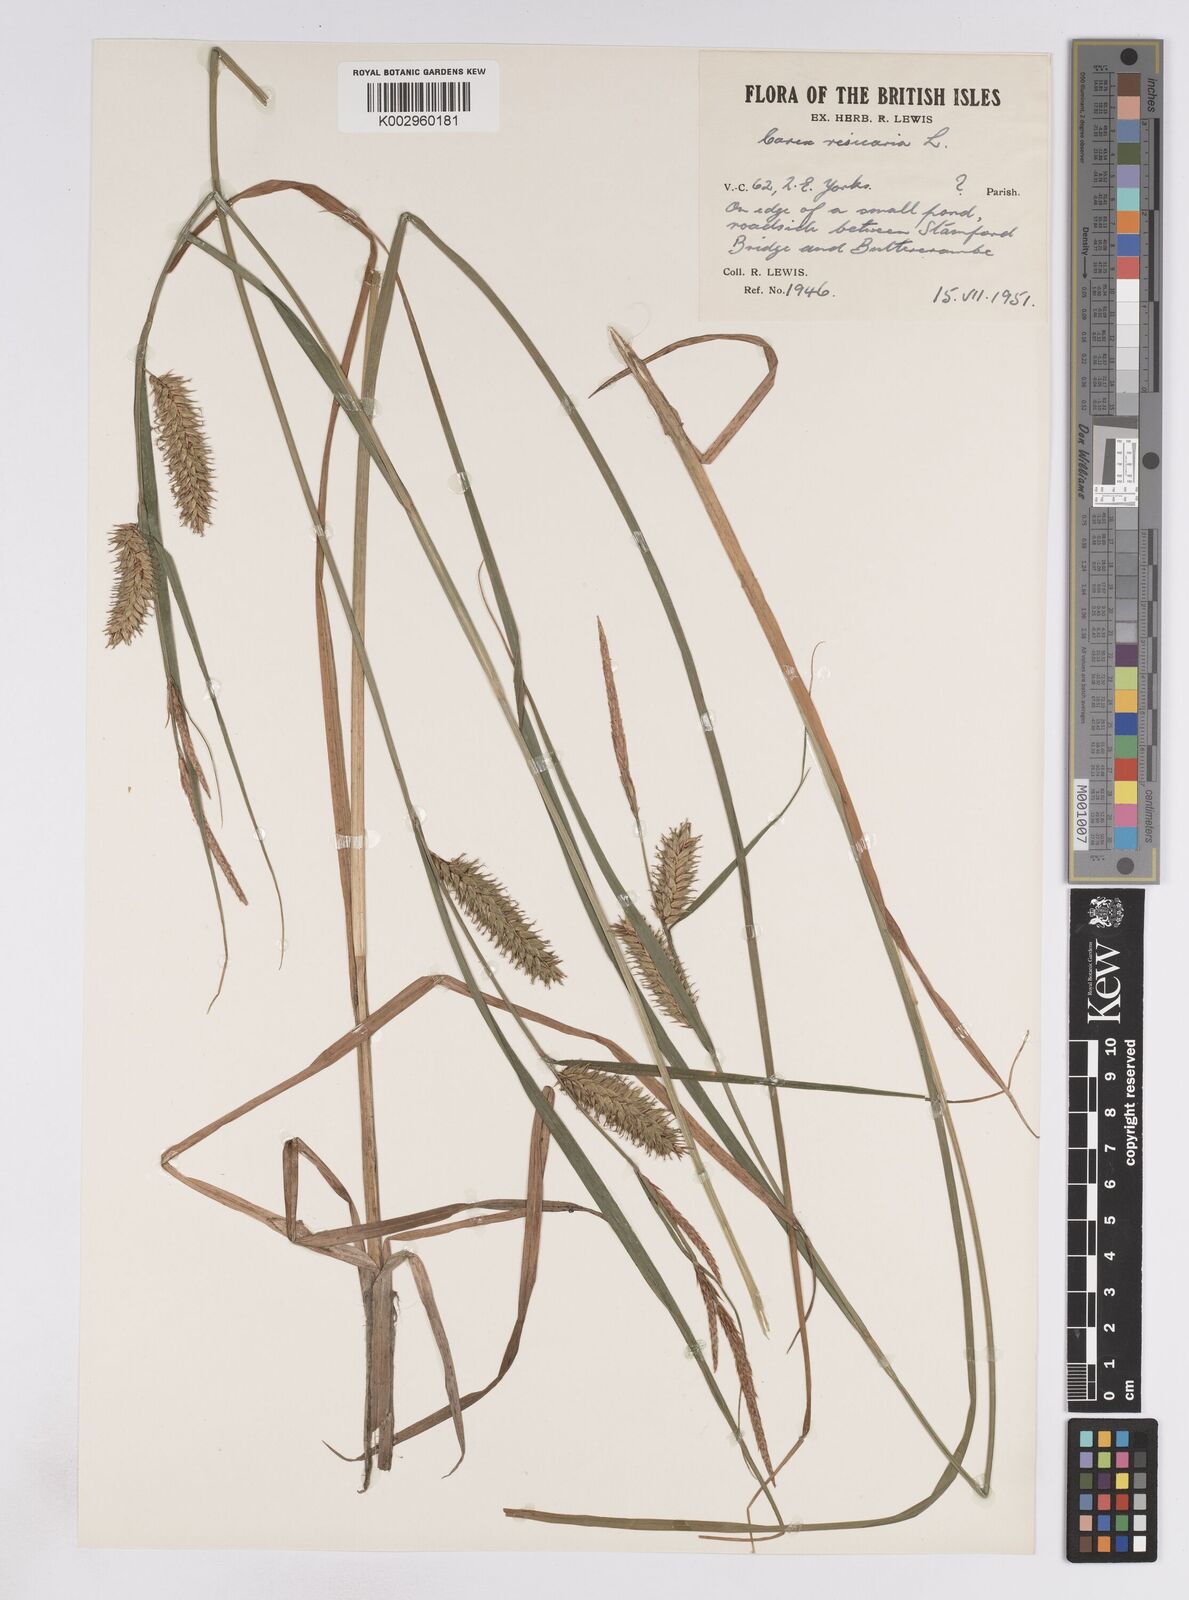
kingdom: Plantae
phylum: Tracheophyta
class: Liliopsida
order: Poales
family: Cyperaceae
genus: Carex
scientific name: Carex vesicaria
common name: Bladder-sedge
